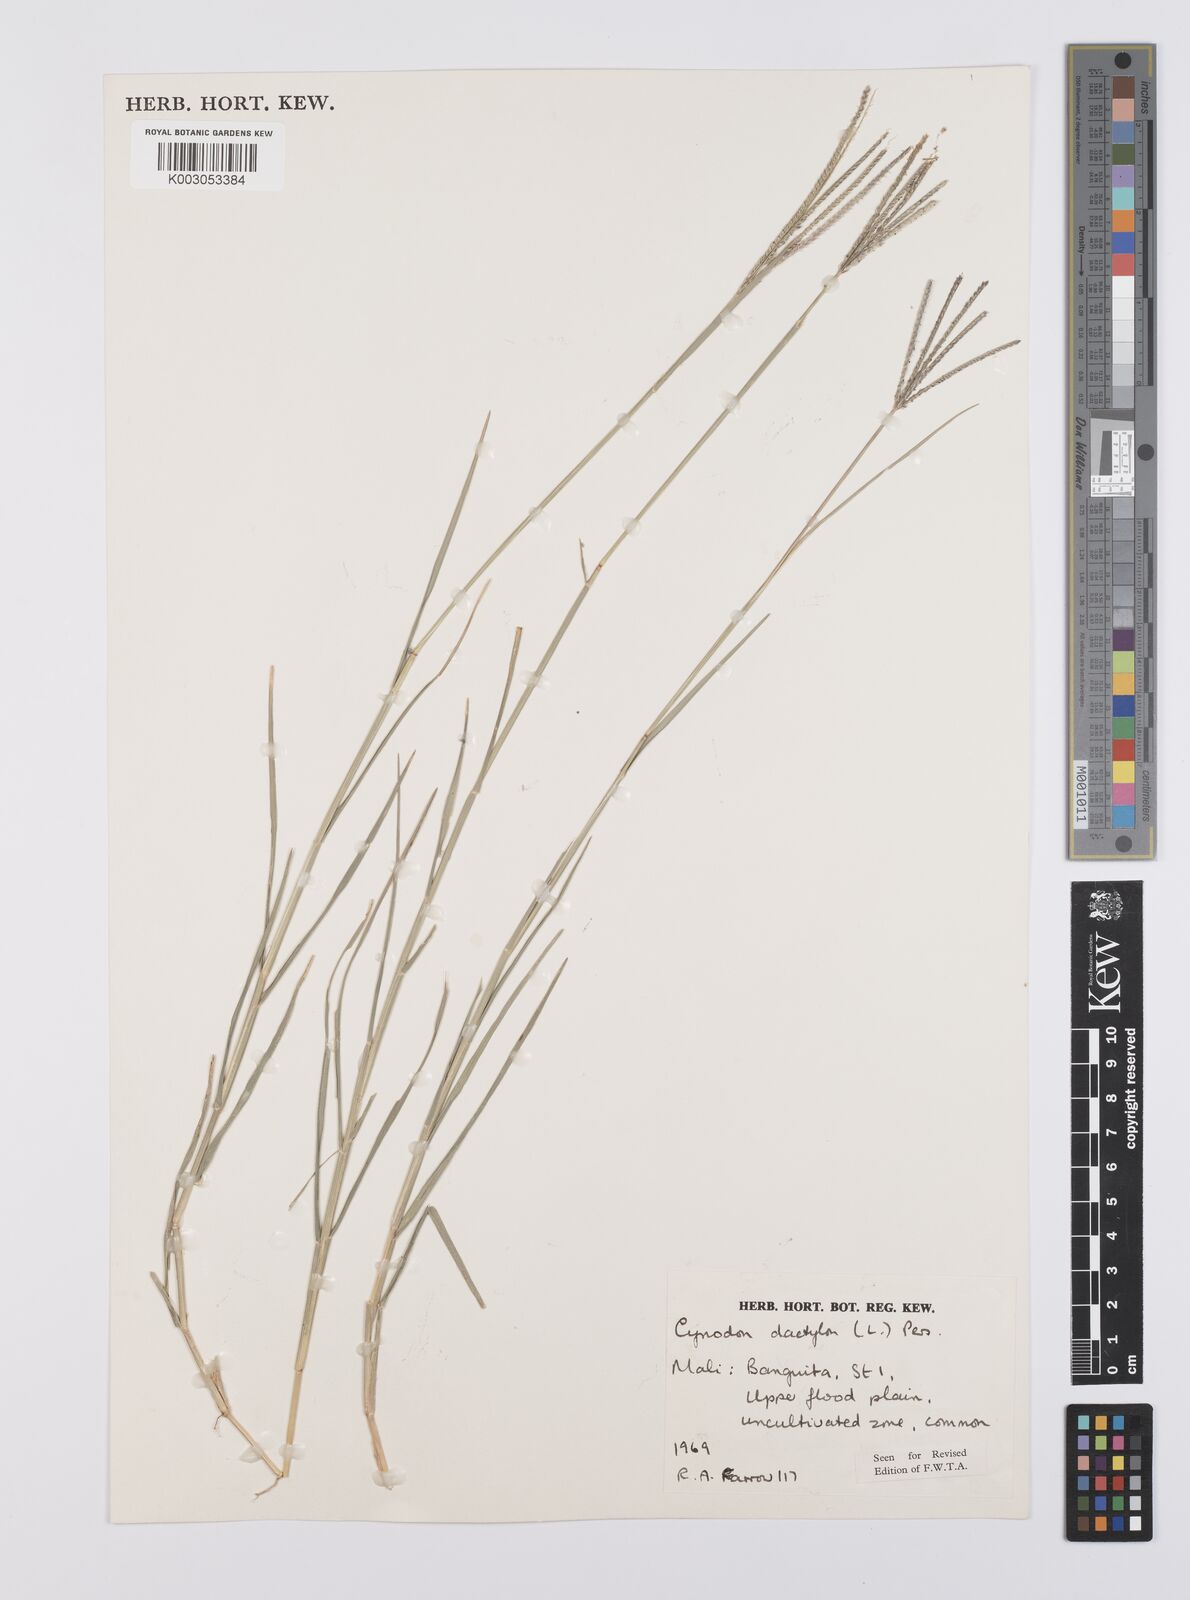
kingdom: Plantae
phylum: Tracheophyta
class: Liliopsida
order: Poales
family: Poaceae
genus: Cynodon
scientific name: Cynodon dactylon
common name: Bermuda grass
